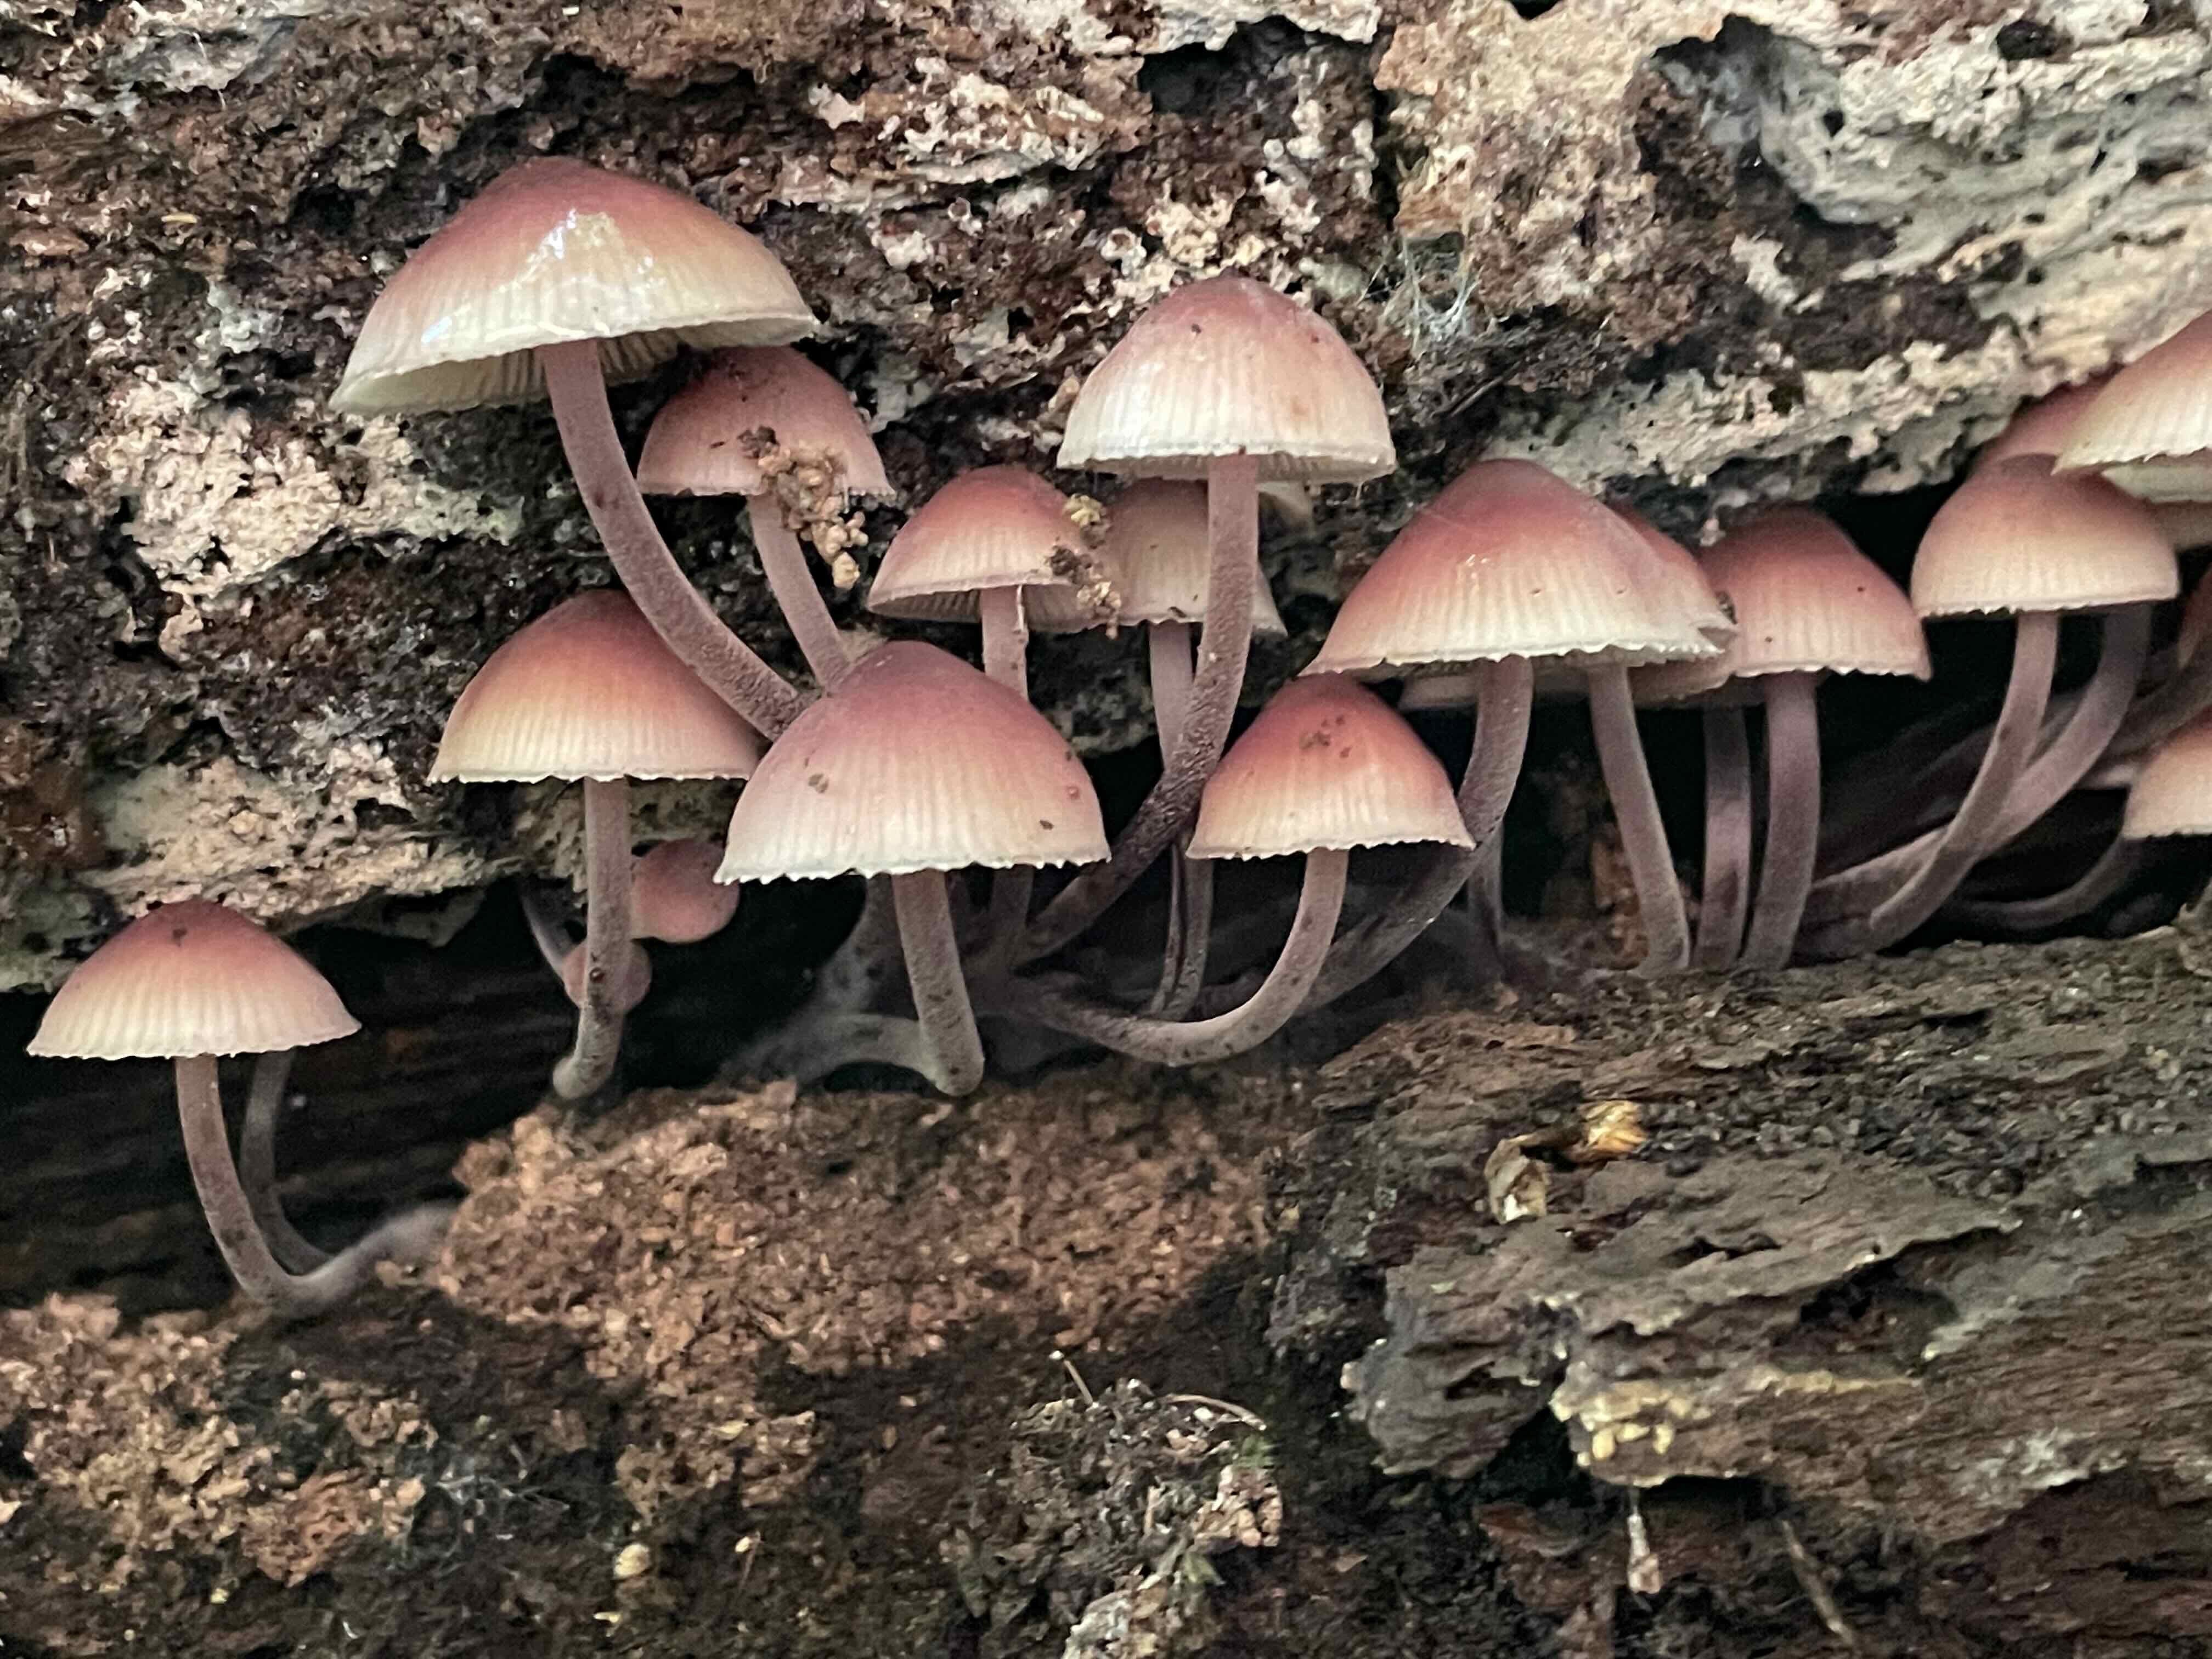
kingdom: Fungi
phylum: Basidiomycota
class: Agaricomycetes
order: Agaricales
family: Mycenaceae
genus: Mycena
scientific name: Mycena haematopus
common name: blødende huesvamp
